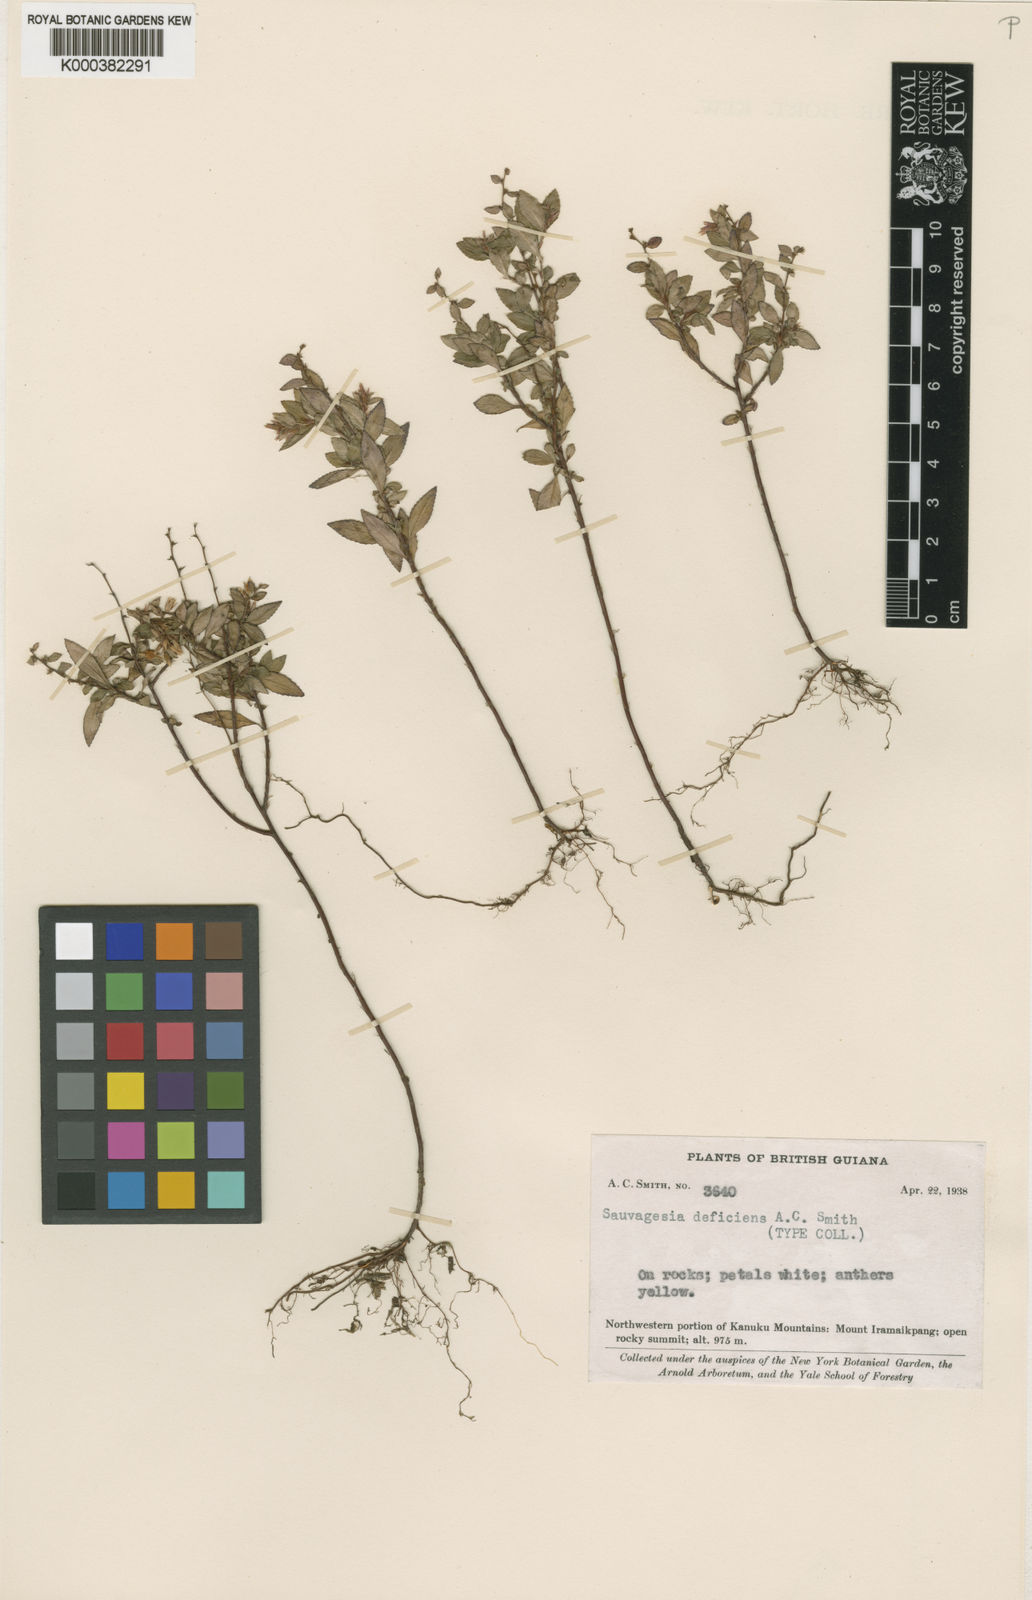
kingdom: Plantae
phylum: Tracheophyta
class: Magnoliopsida
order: Malpighiales
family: Ochnaceae
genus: Sauvagesia
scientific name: Sauvagesia roraimensis
